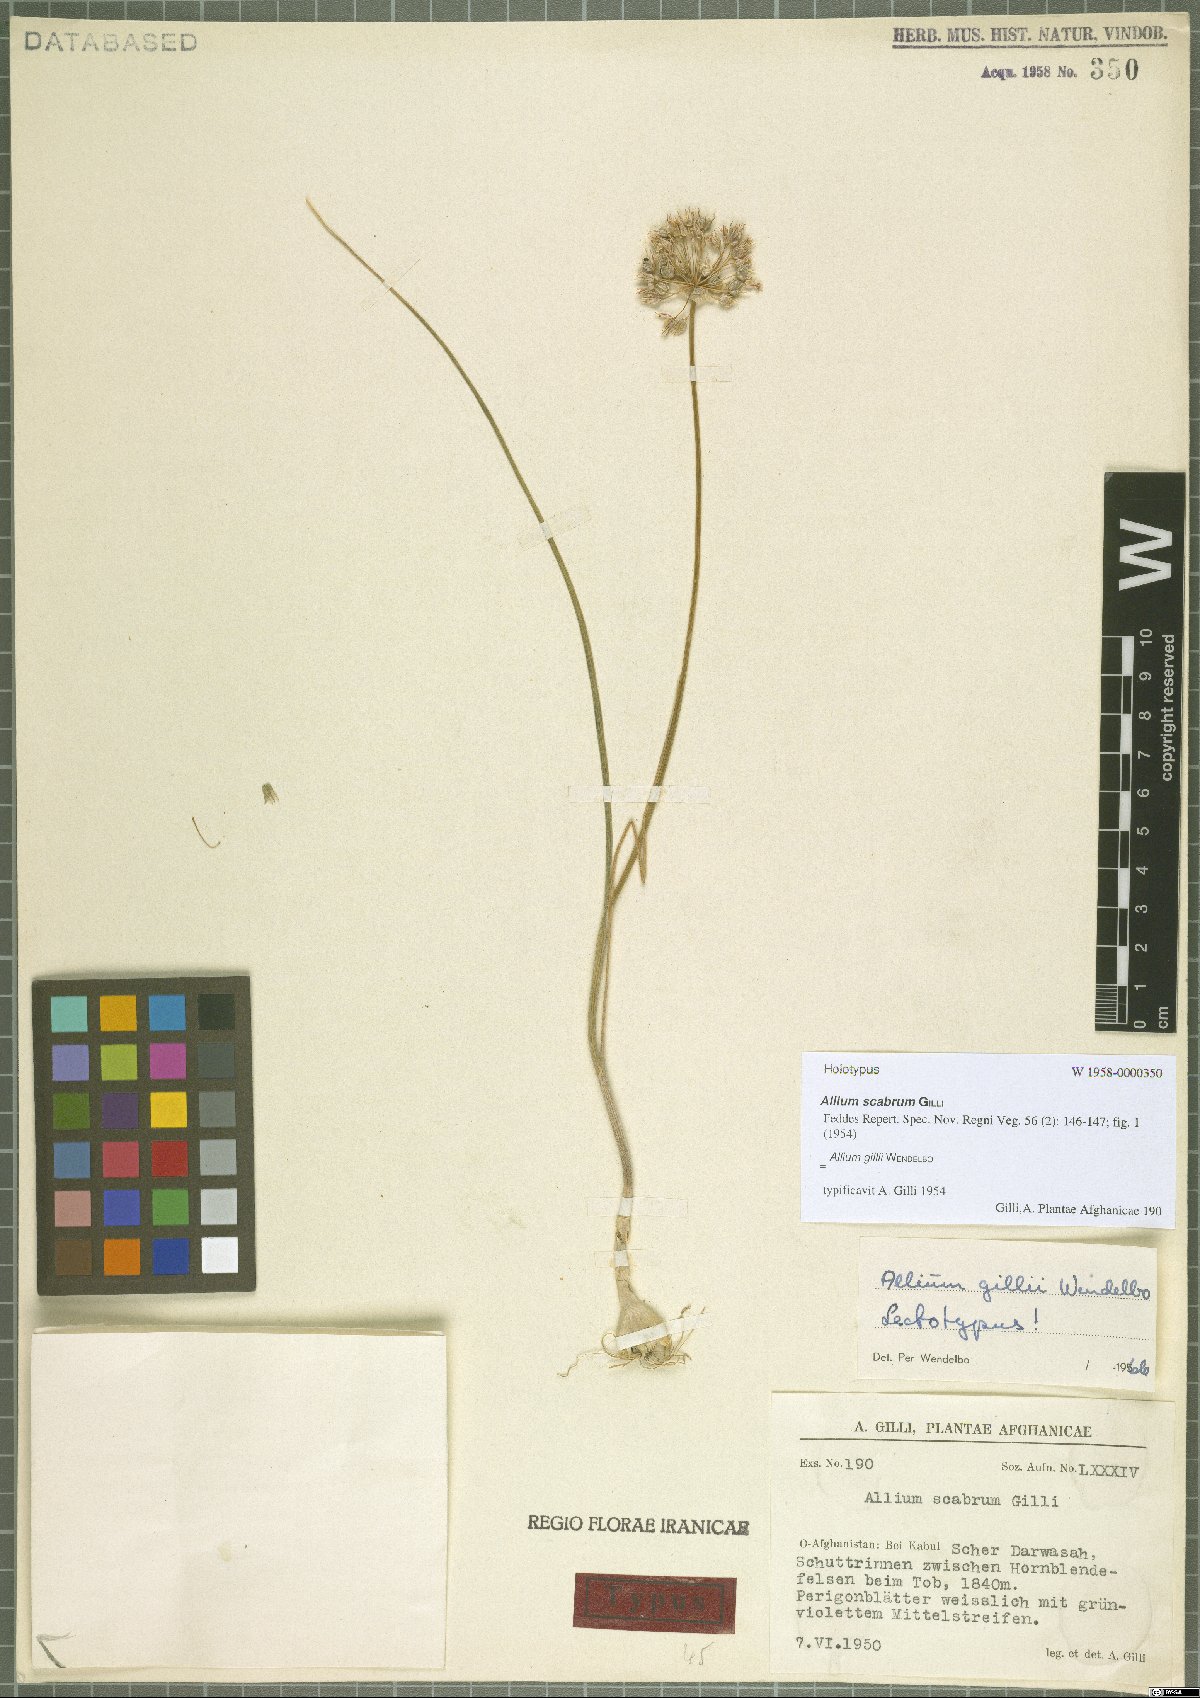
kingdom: Plantae
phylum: Tracheophyta
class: Liliopsida
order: Asparagales
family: Amaryllidaceae
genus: Allium
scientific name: Allium gillii
